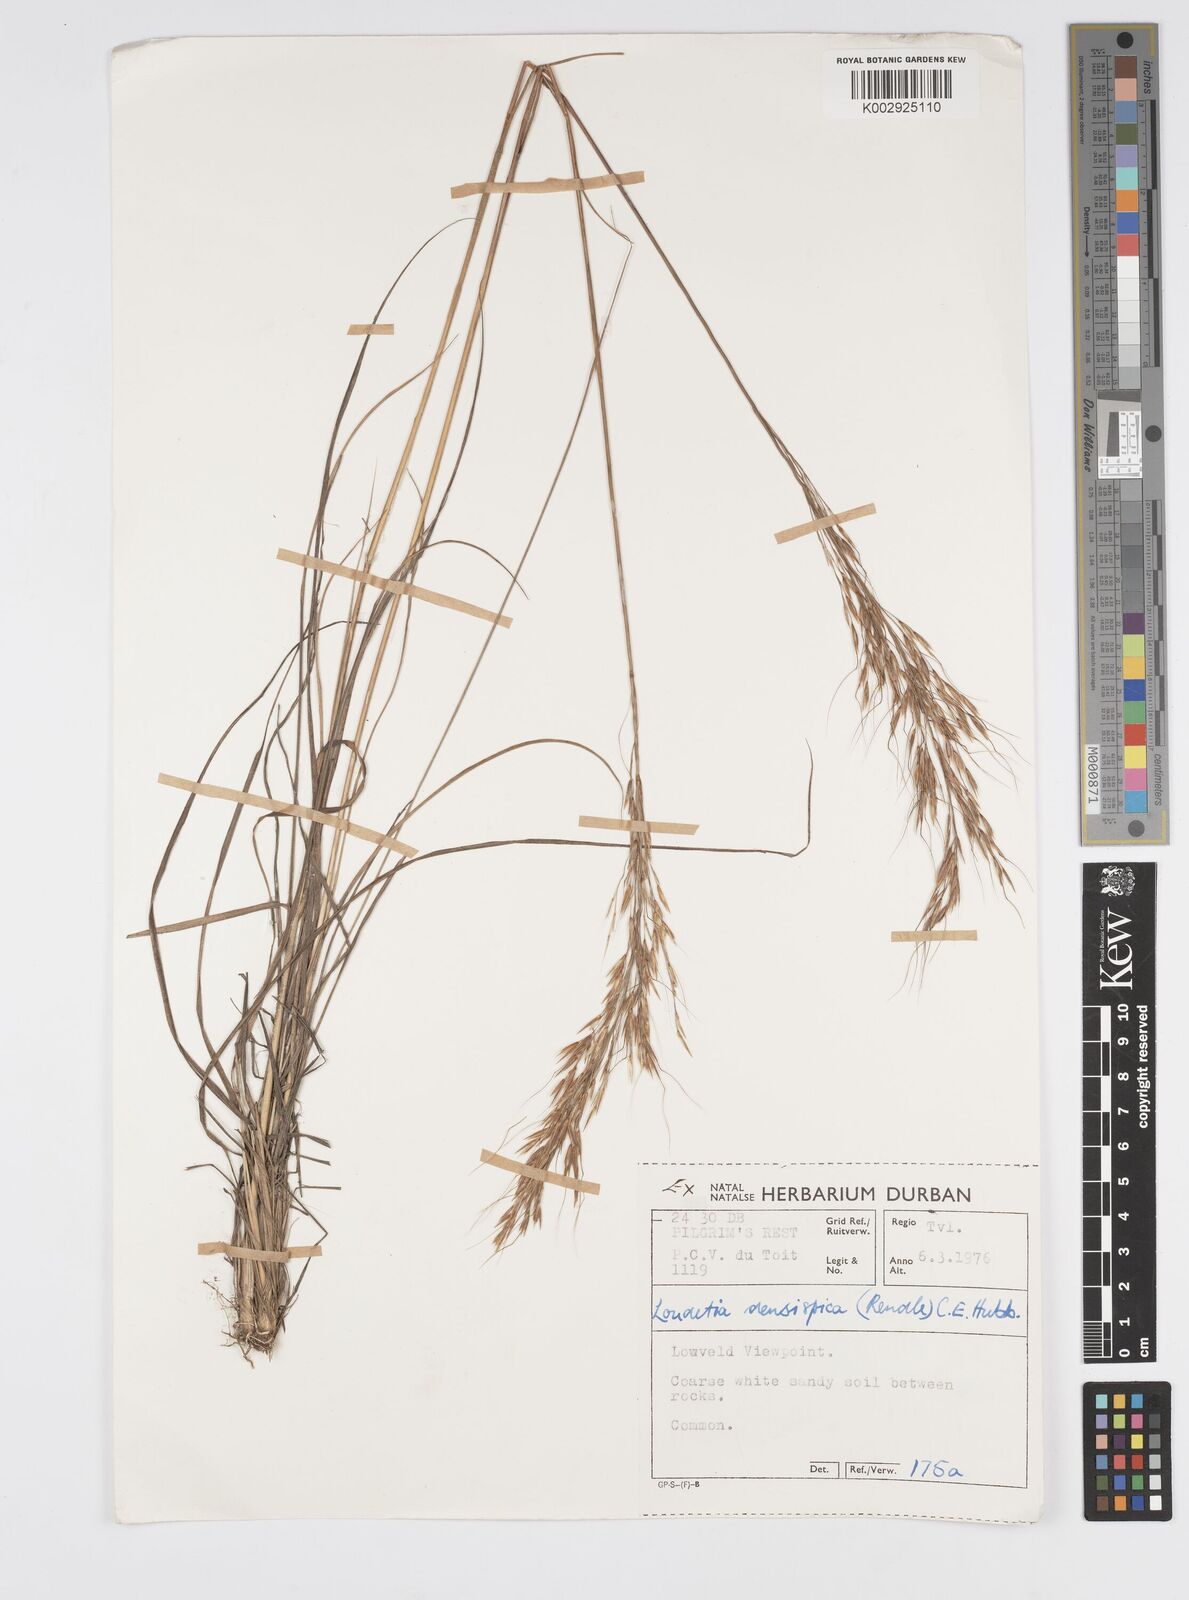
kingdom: Plantae
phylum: Tracheophyta
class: Liliopsida
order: Poales
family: Poaceae
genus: Loudetia
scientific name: Loudetia simplex
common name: Common russet grass
